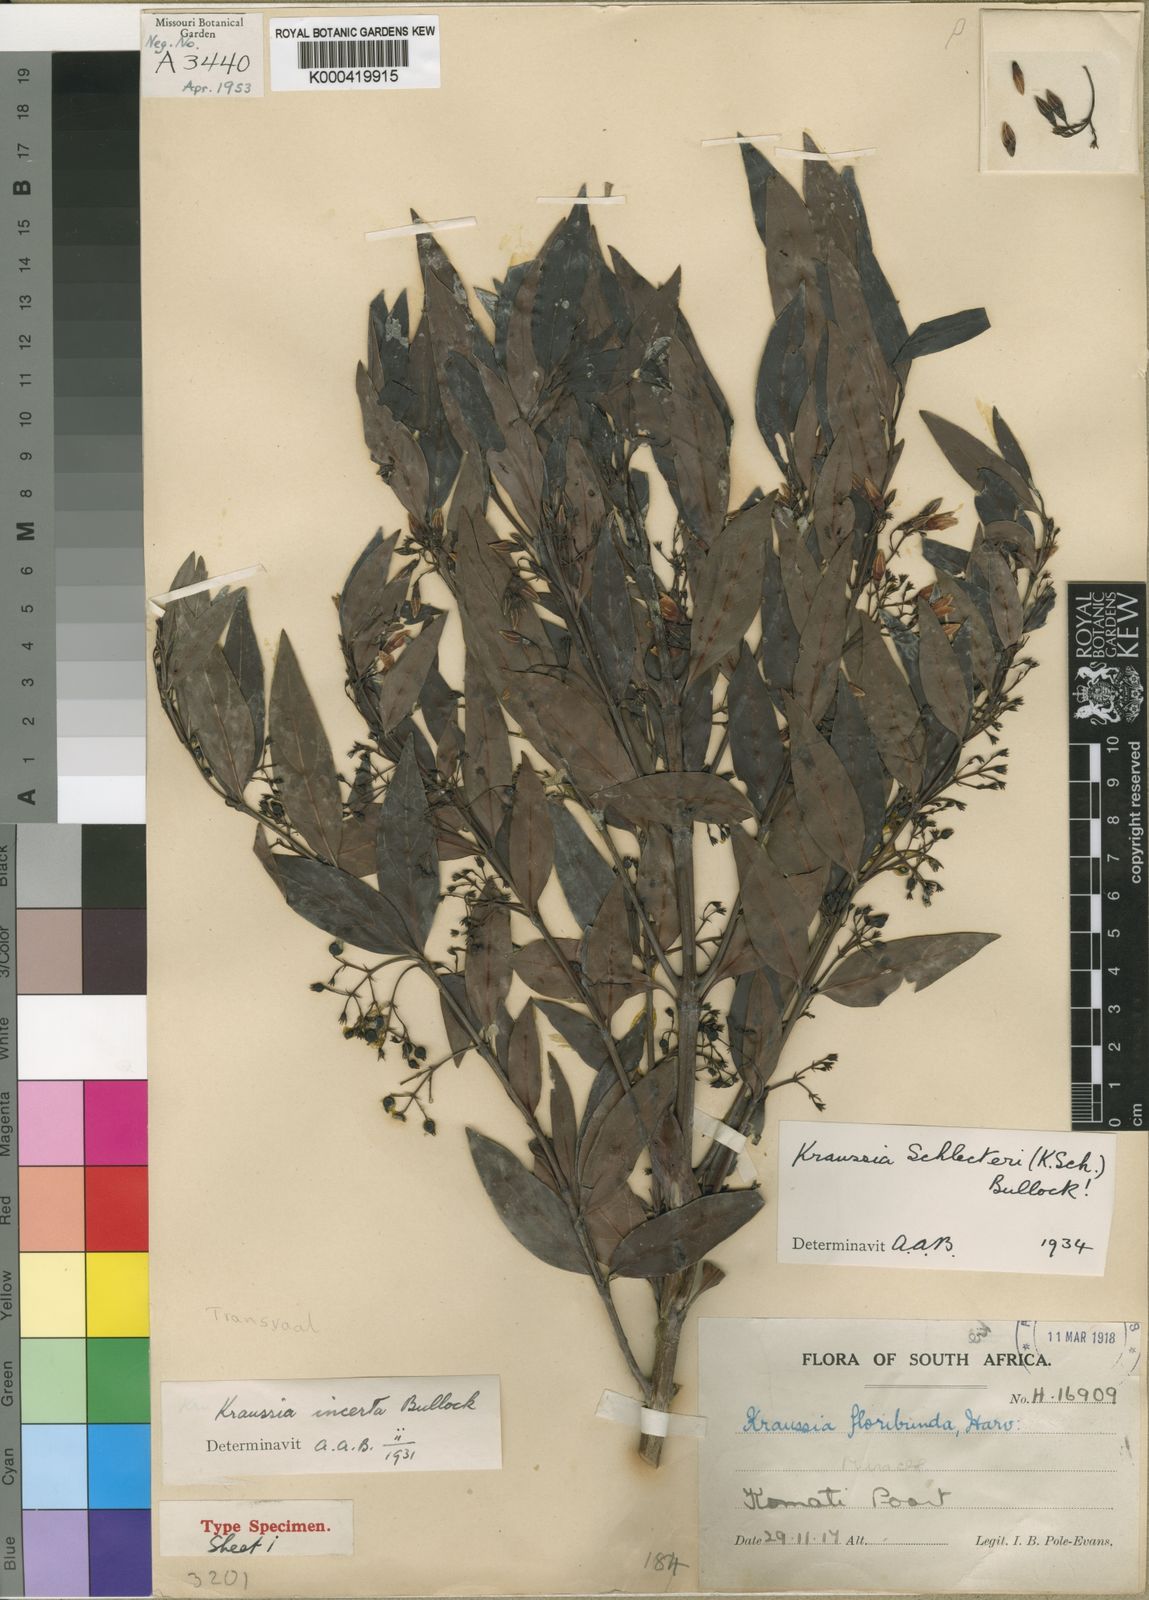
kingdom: Plantae
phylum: Tracheophyta
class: Magnoliopsida
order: Gentianales
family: Rubiaceae
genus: Kraussia
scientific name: Kraussia floribunda
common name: Rhino-coffee
